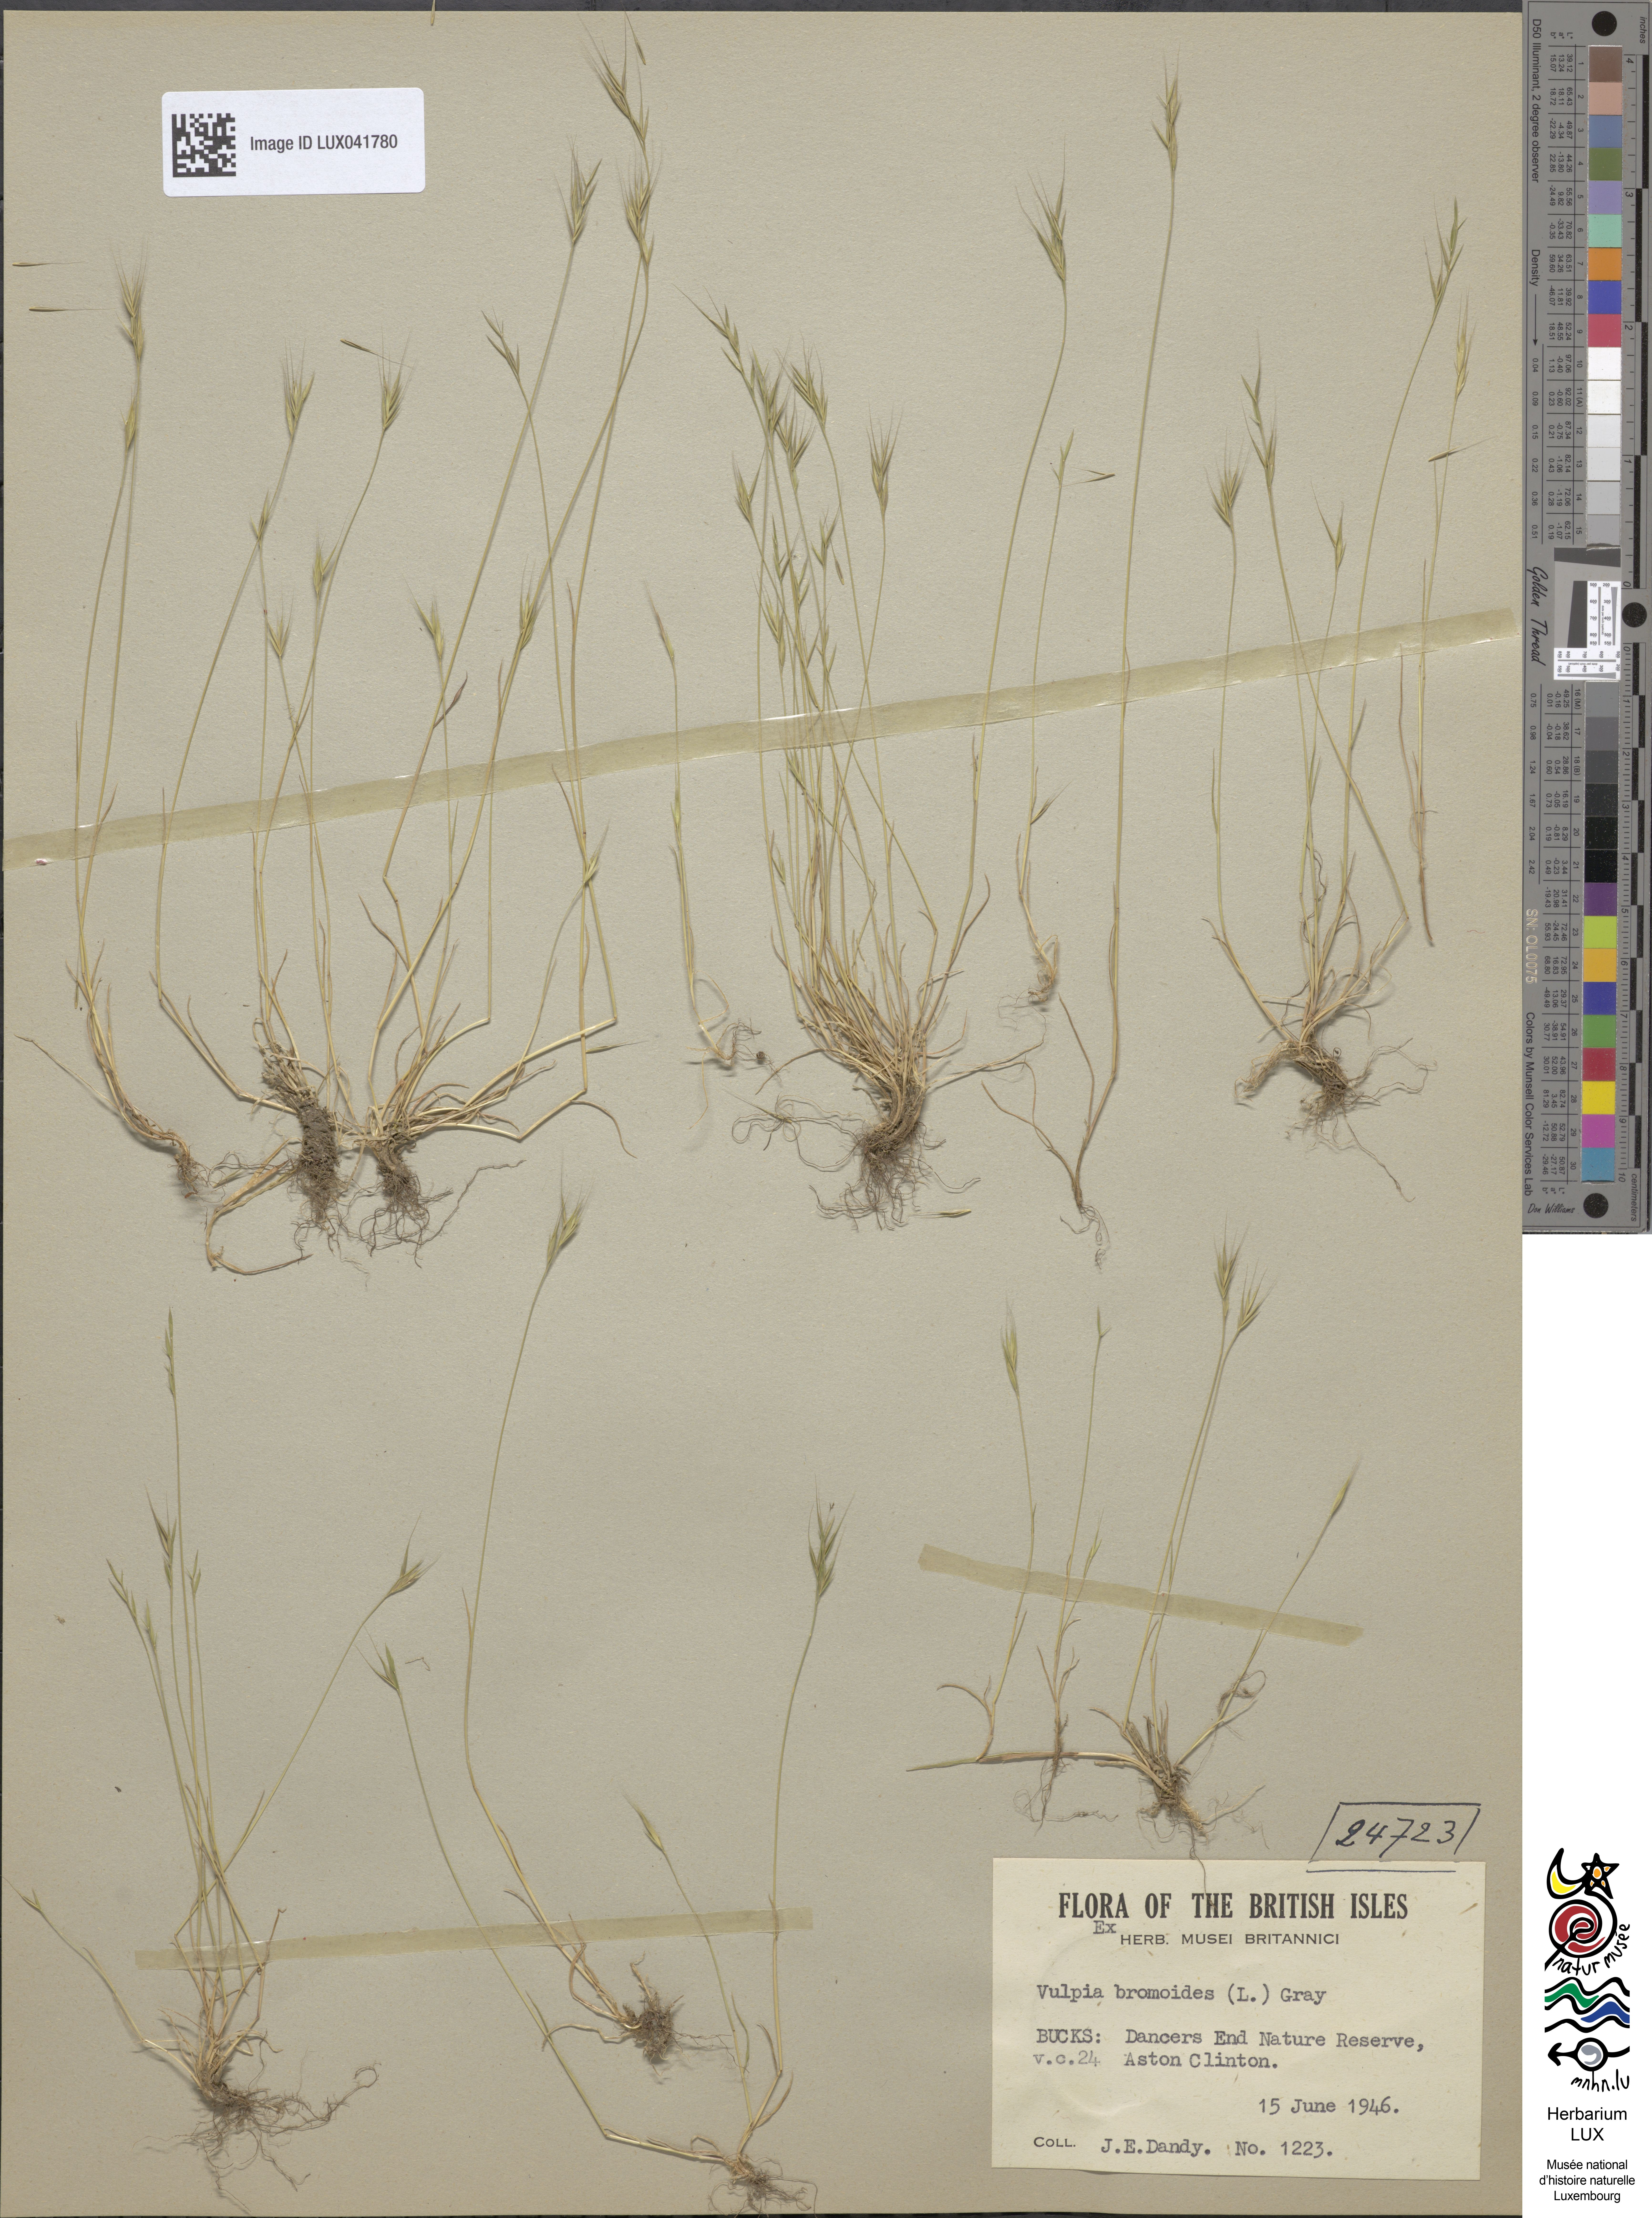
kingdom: Plantae
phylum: Tracheophyta
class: Liliopsida
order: Poales
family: Poaceae
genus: Festuca
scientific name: Festuca bromoides
